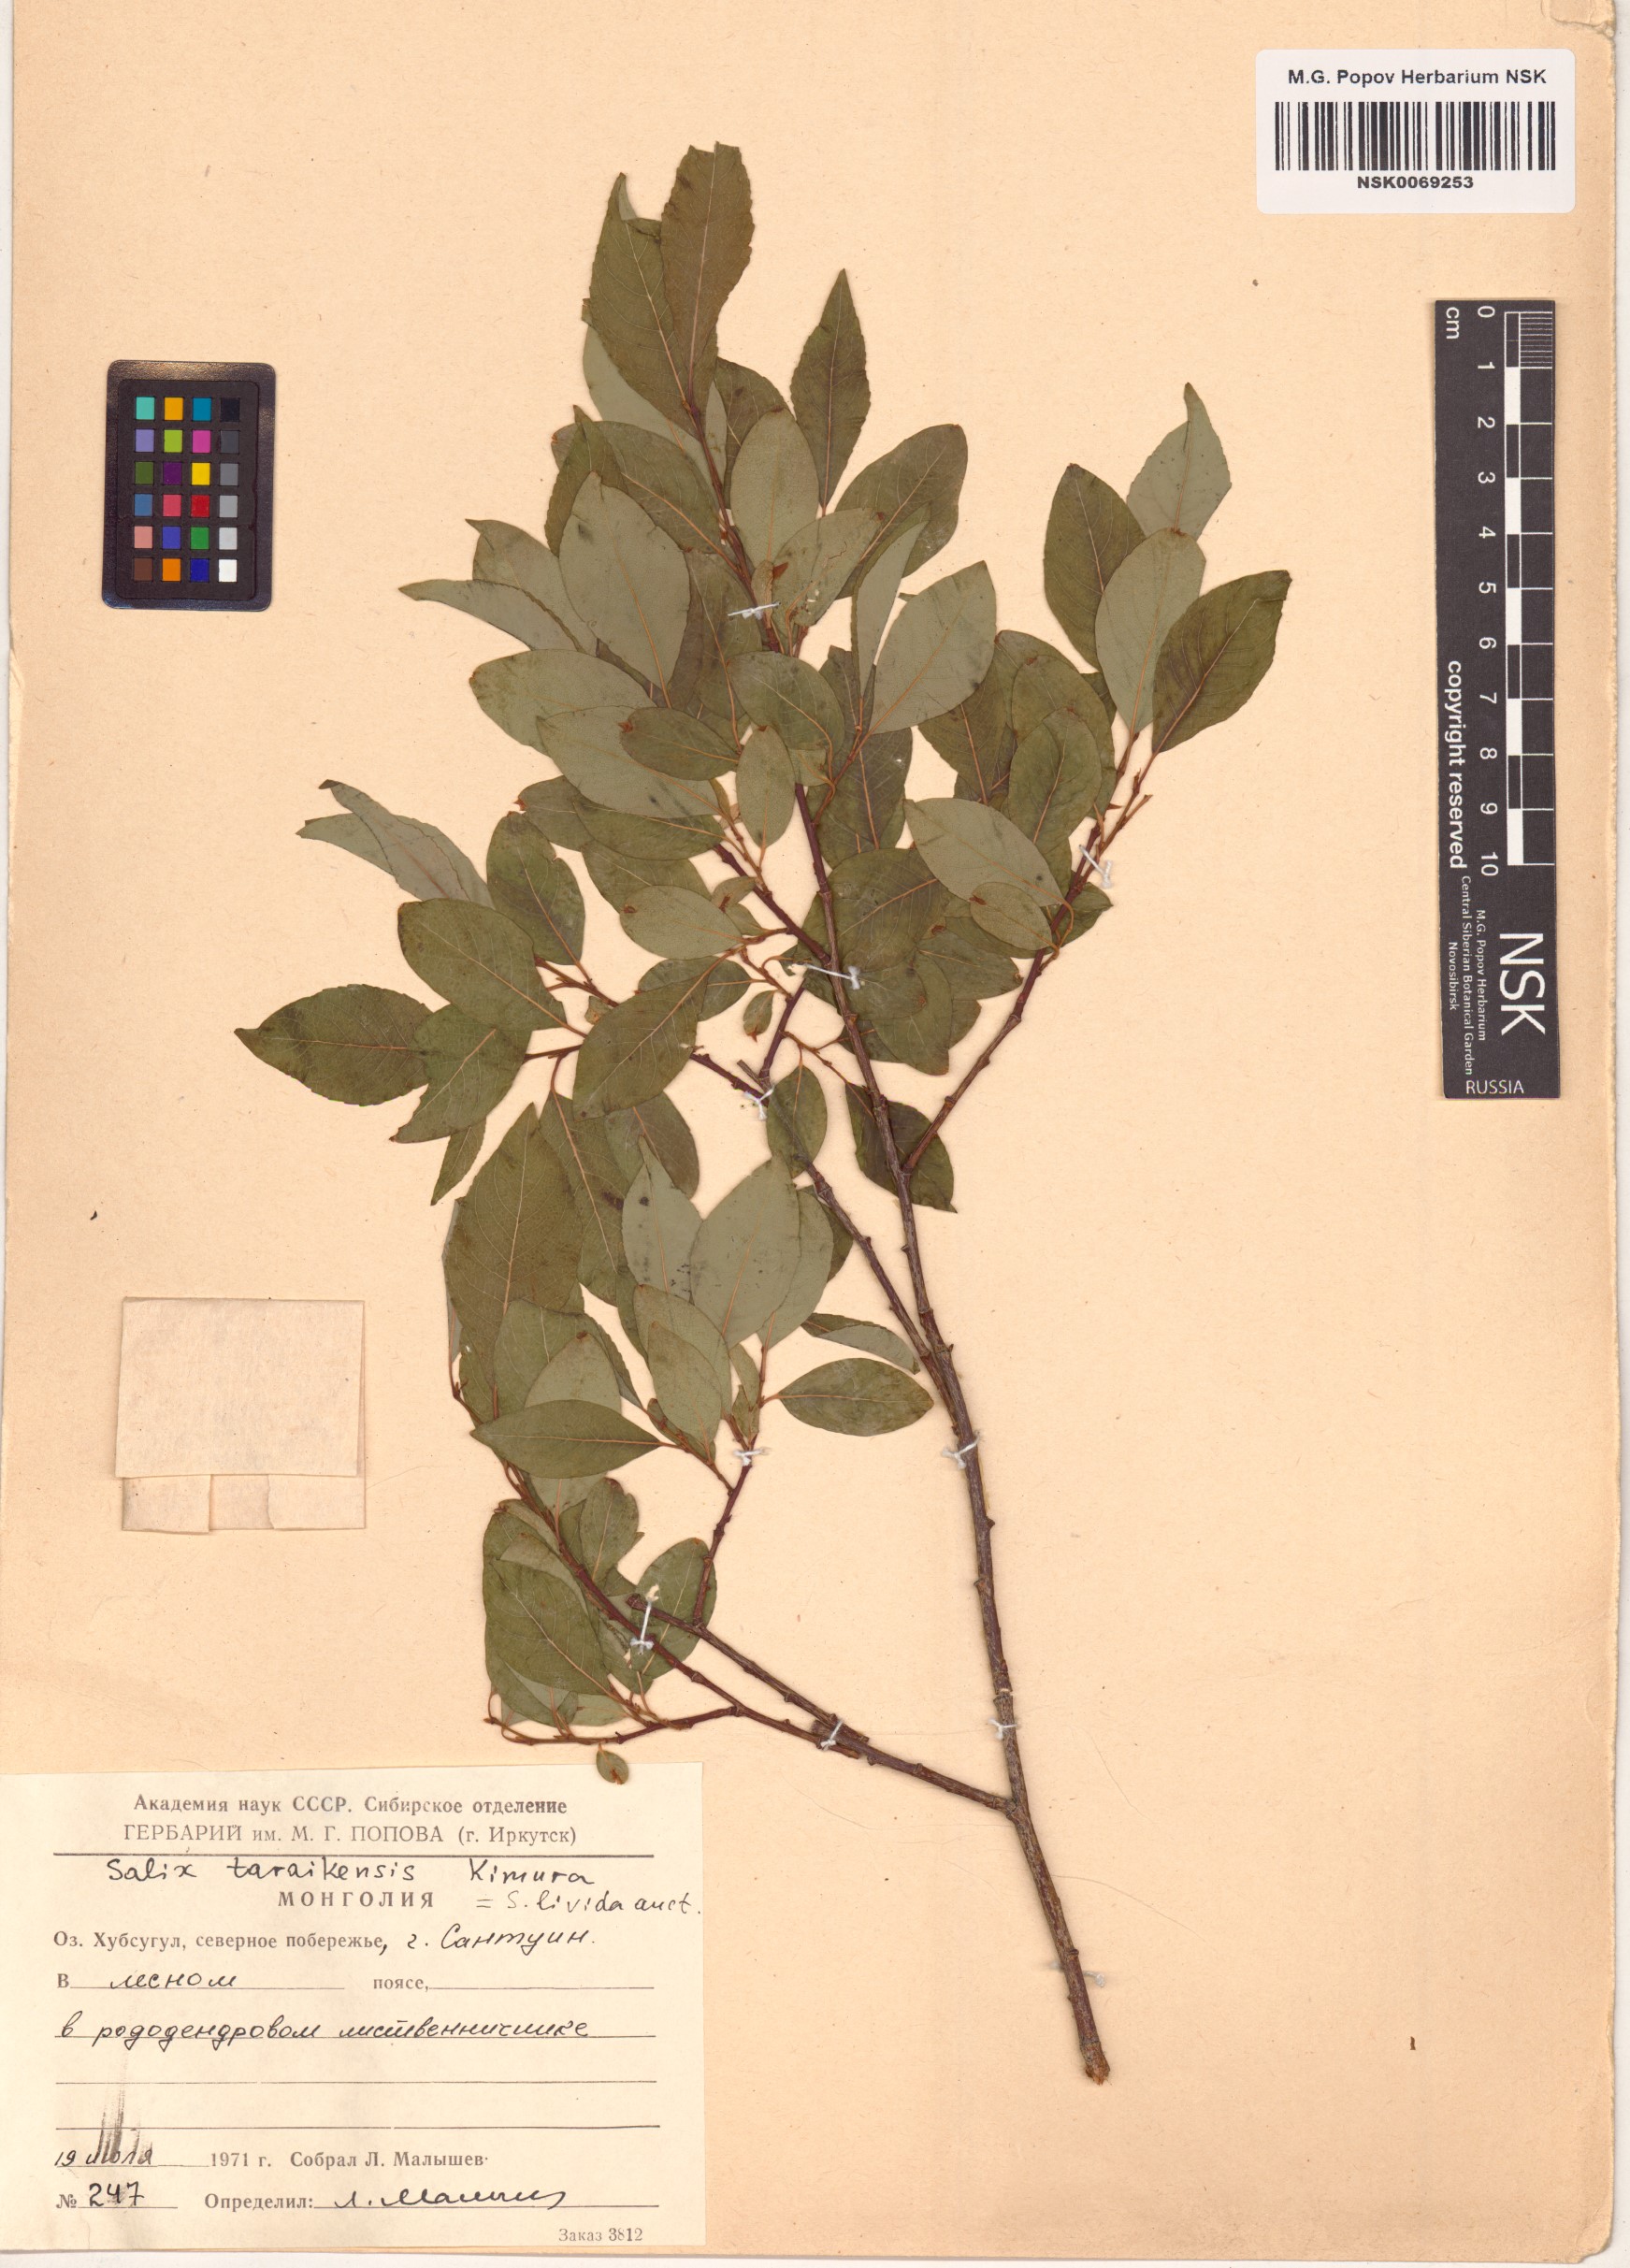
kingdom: Plantae
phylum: Tracheophyta
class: Magnoliopsida
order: Malpighiales
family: Salicaceae
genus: Salix
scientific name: Salix taraikensis
